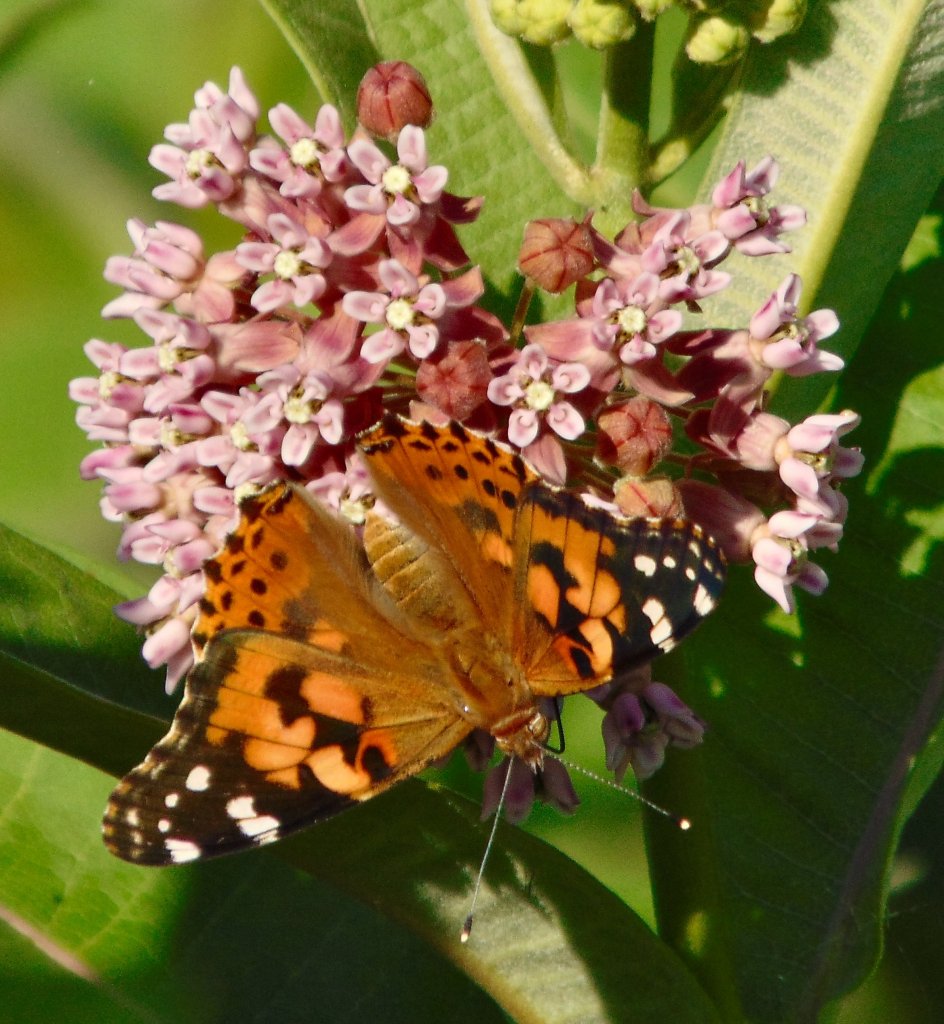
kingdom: Animalia
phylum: Arthropoda
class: Insecta
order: Lepidoptera
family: Nymphalidae
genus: Vanessa
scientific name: Vanessa cardui
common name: Painted Lady
